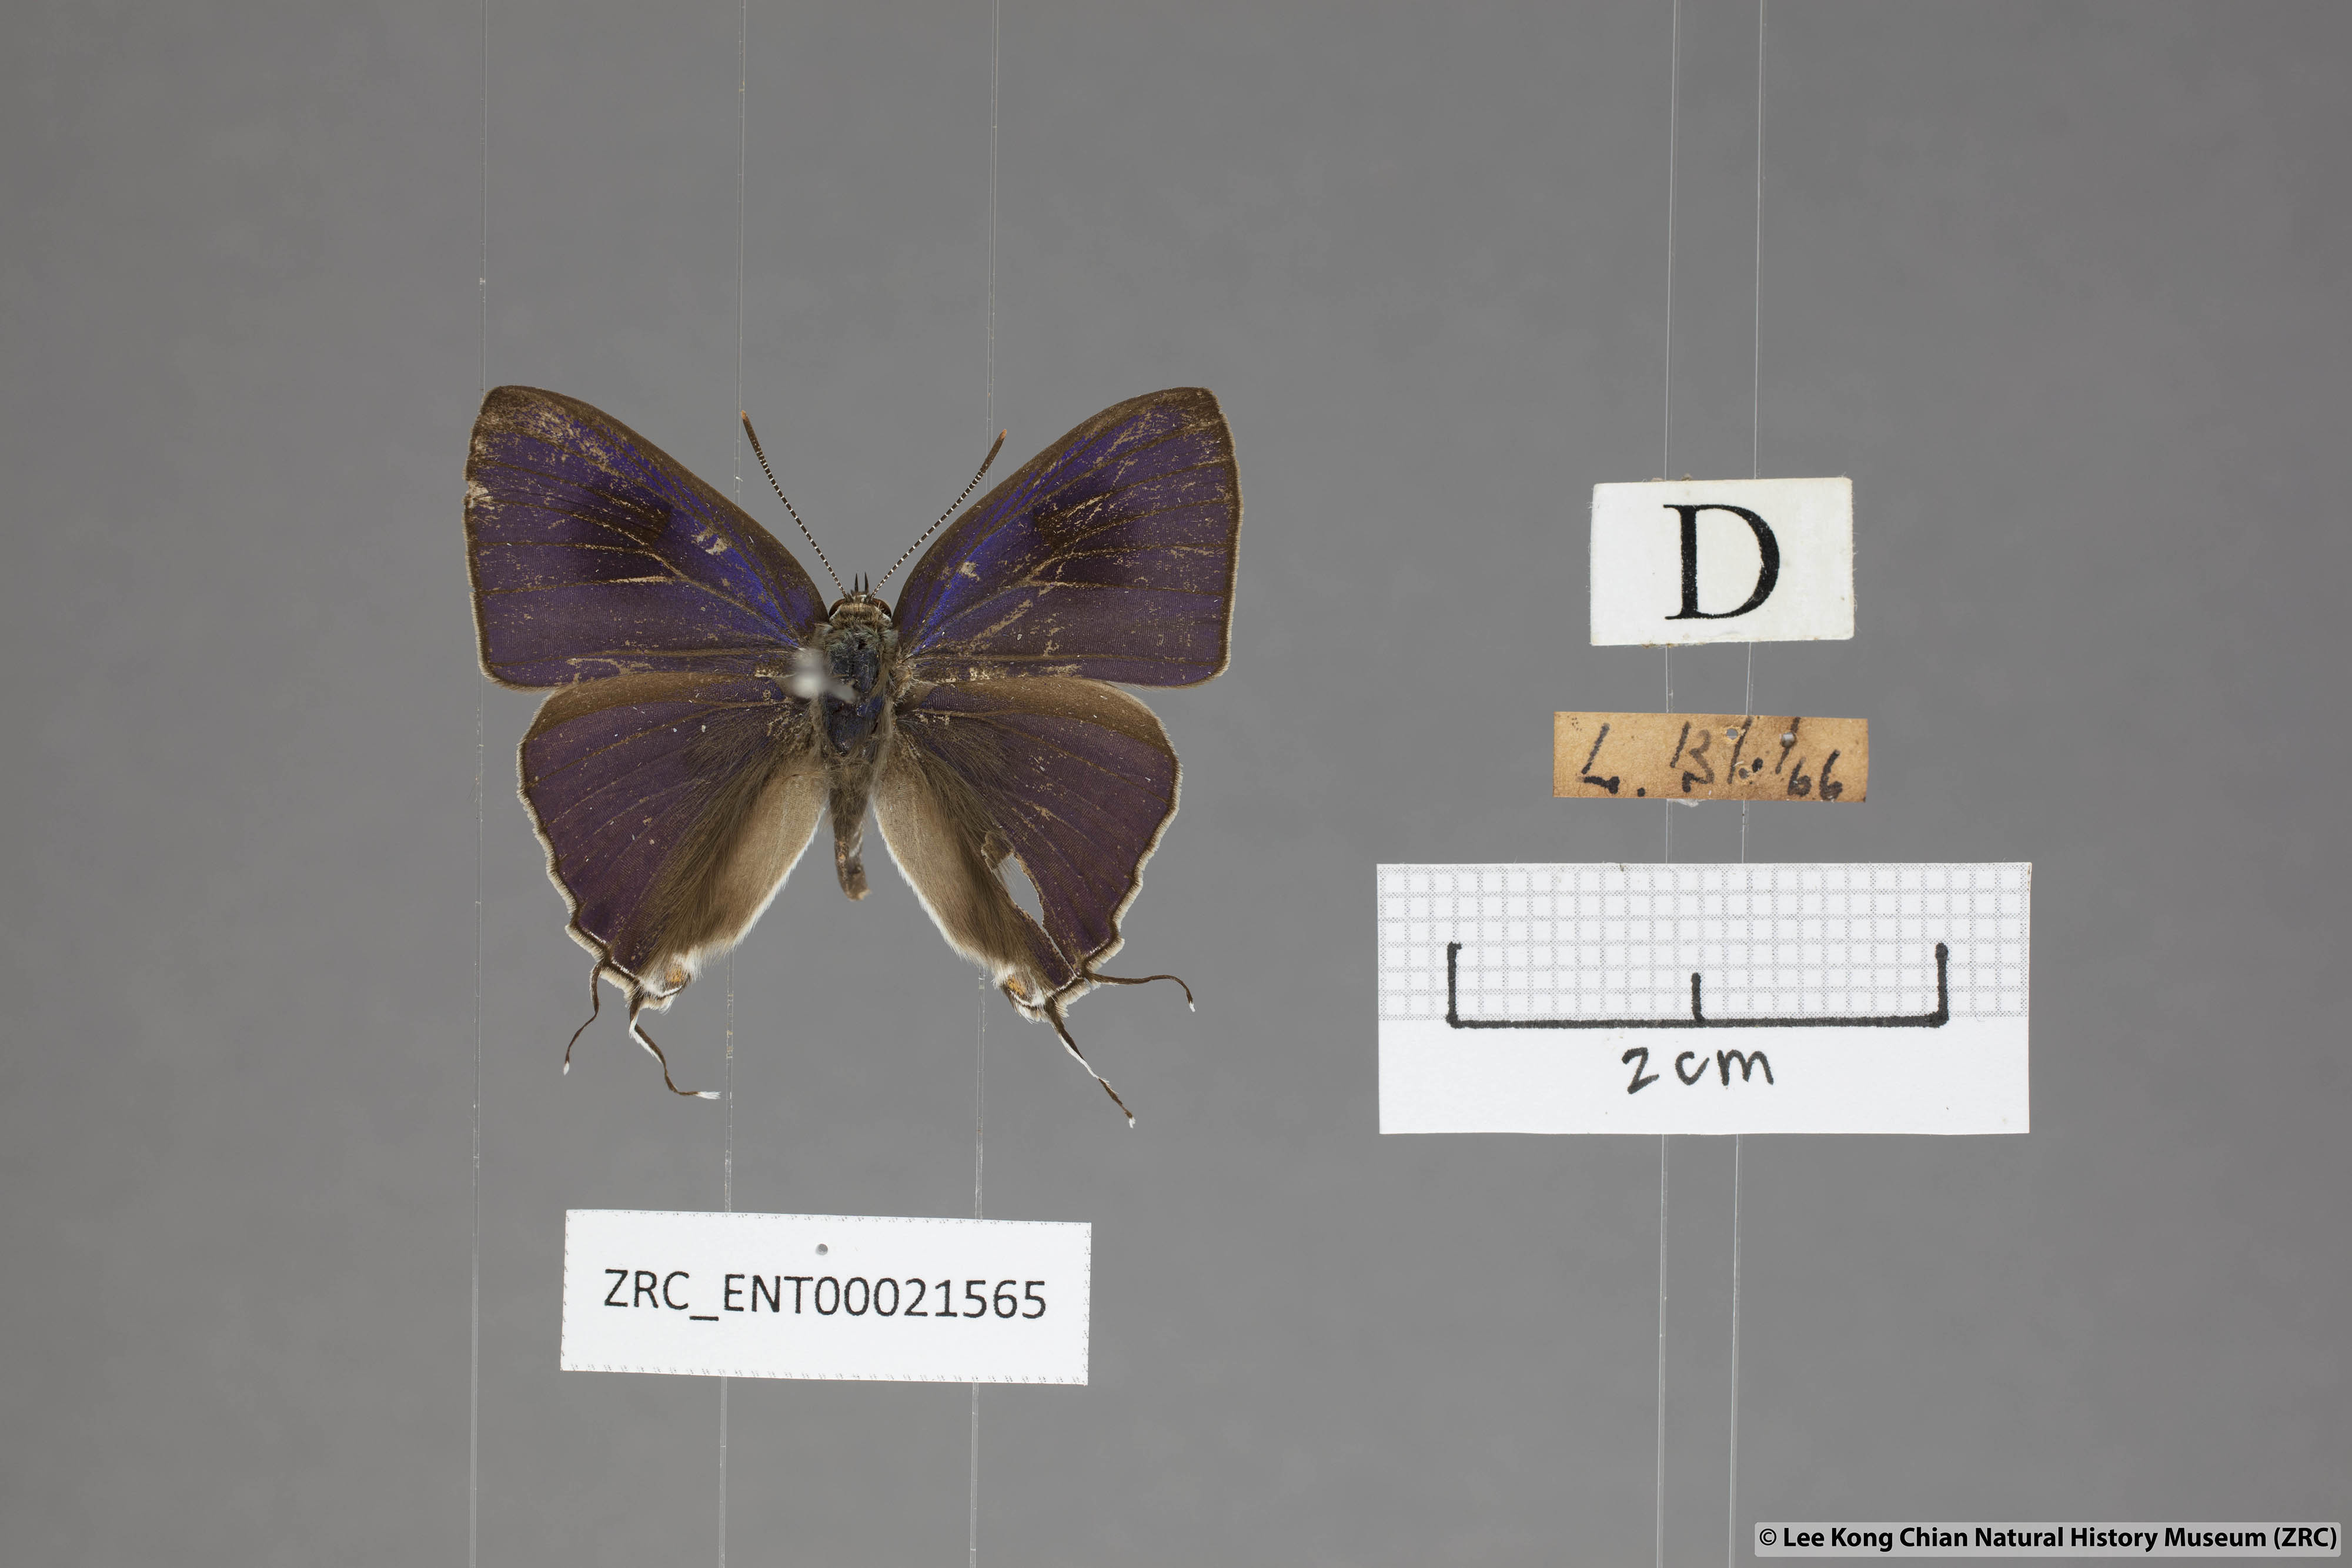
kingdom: Animalia
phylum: Arthropoda
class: Insecta
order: Lepidoptera
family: Lycaenidae
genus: Hypolycaena
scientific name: Hypolycaena erylus
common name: Common tit
